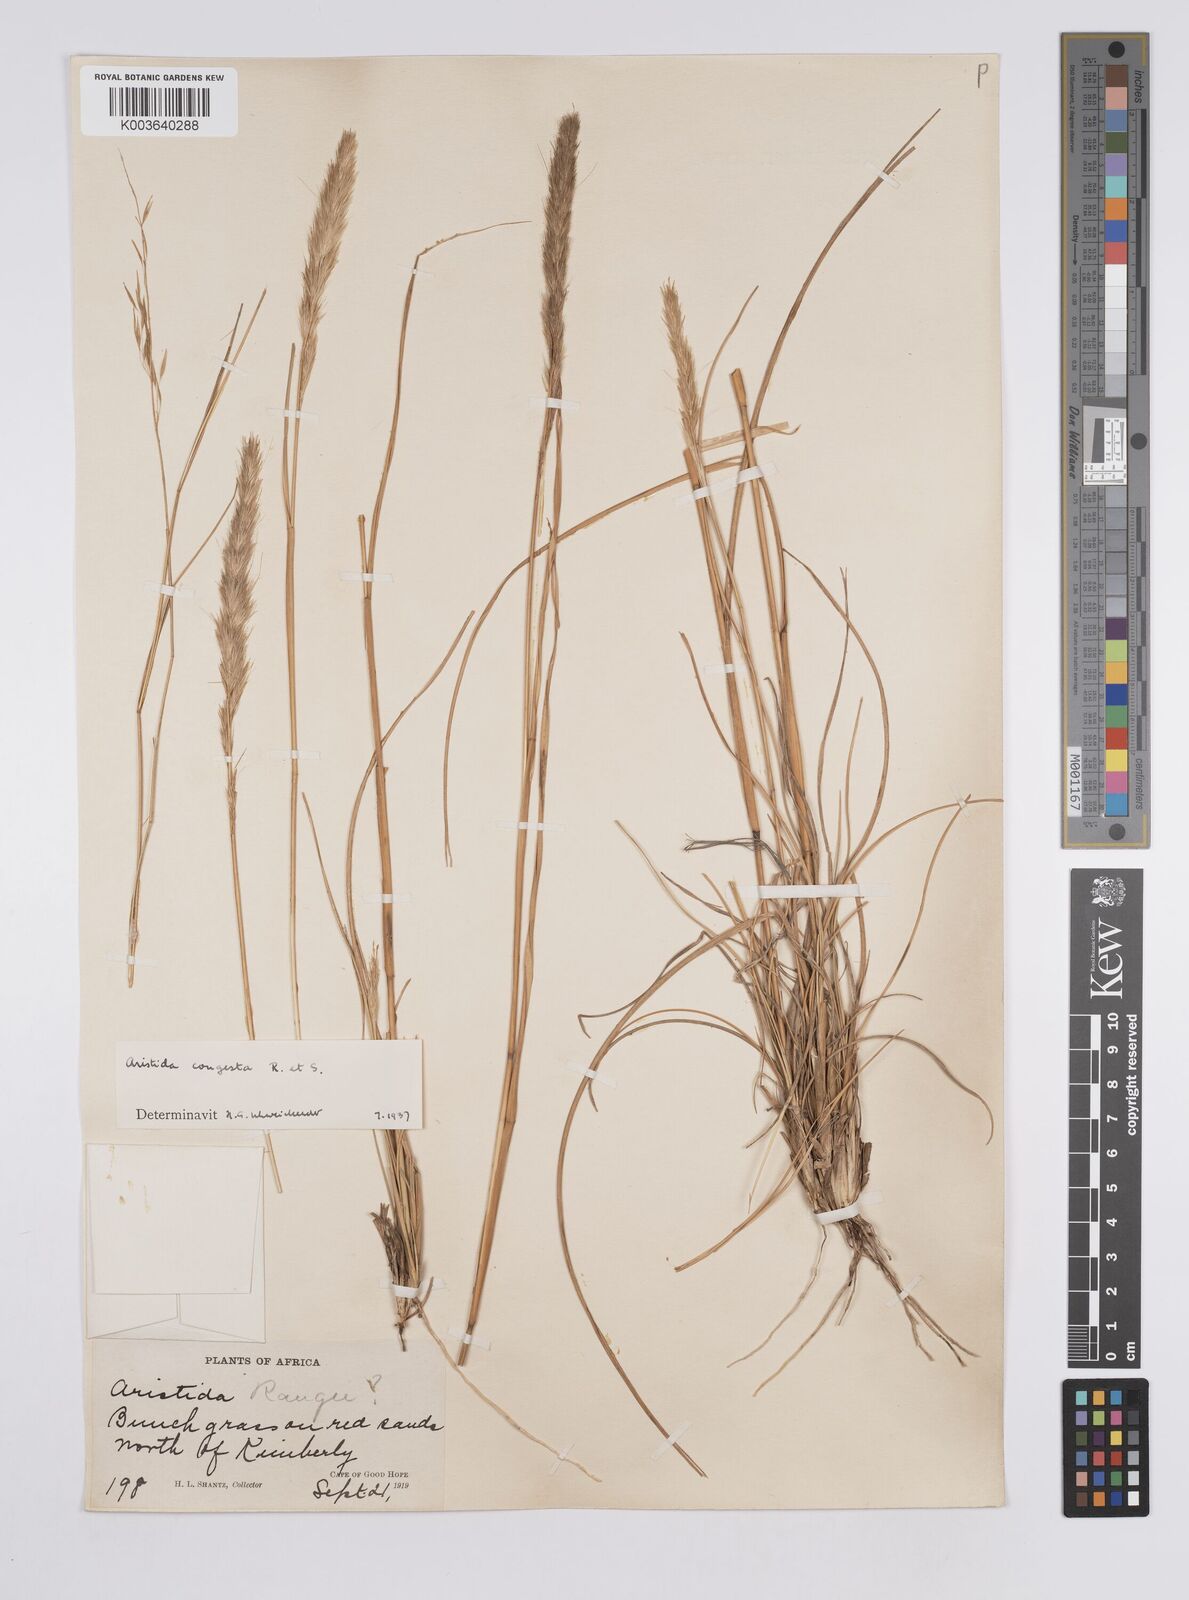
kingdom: Plantae
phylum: Tracheophyta
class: Liliopsida
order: Poales
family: Poaceae
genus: Aristida
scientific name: Aristida congesta
